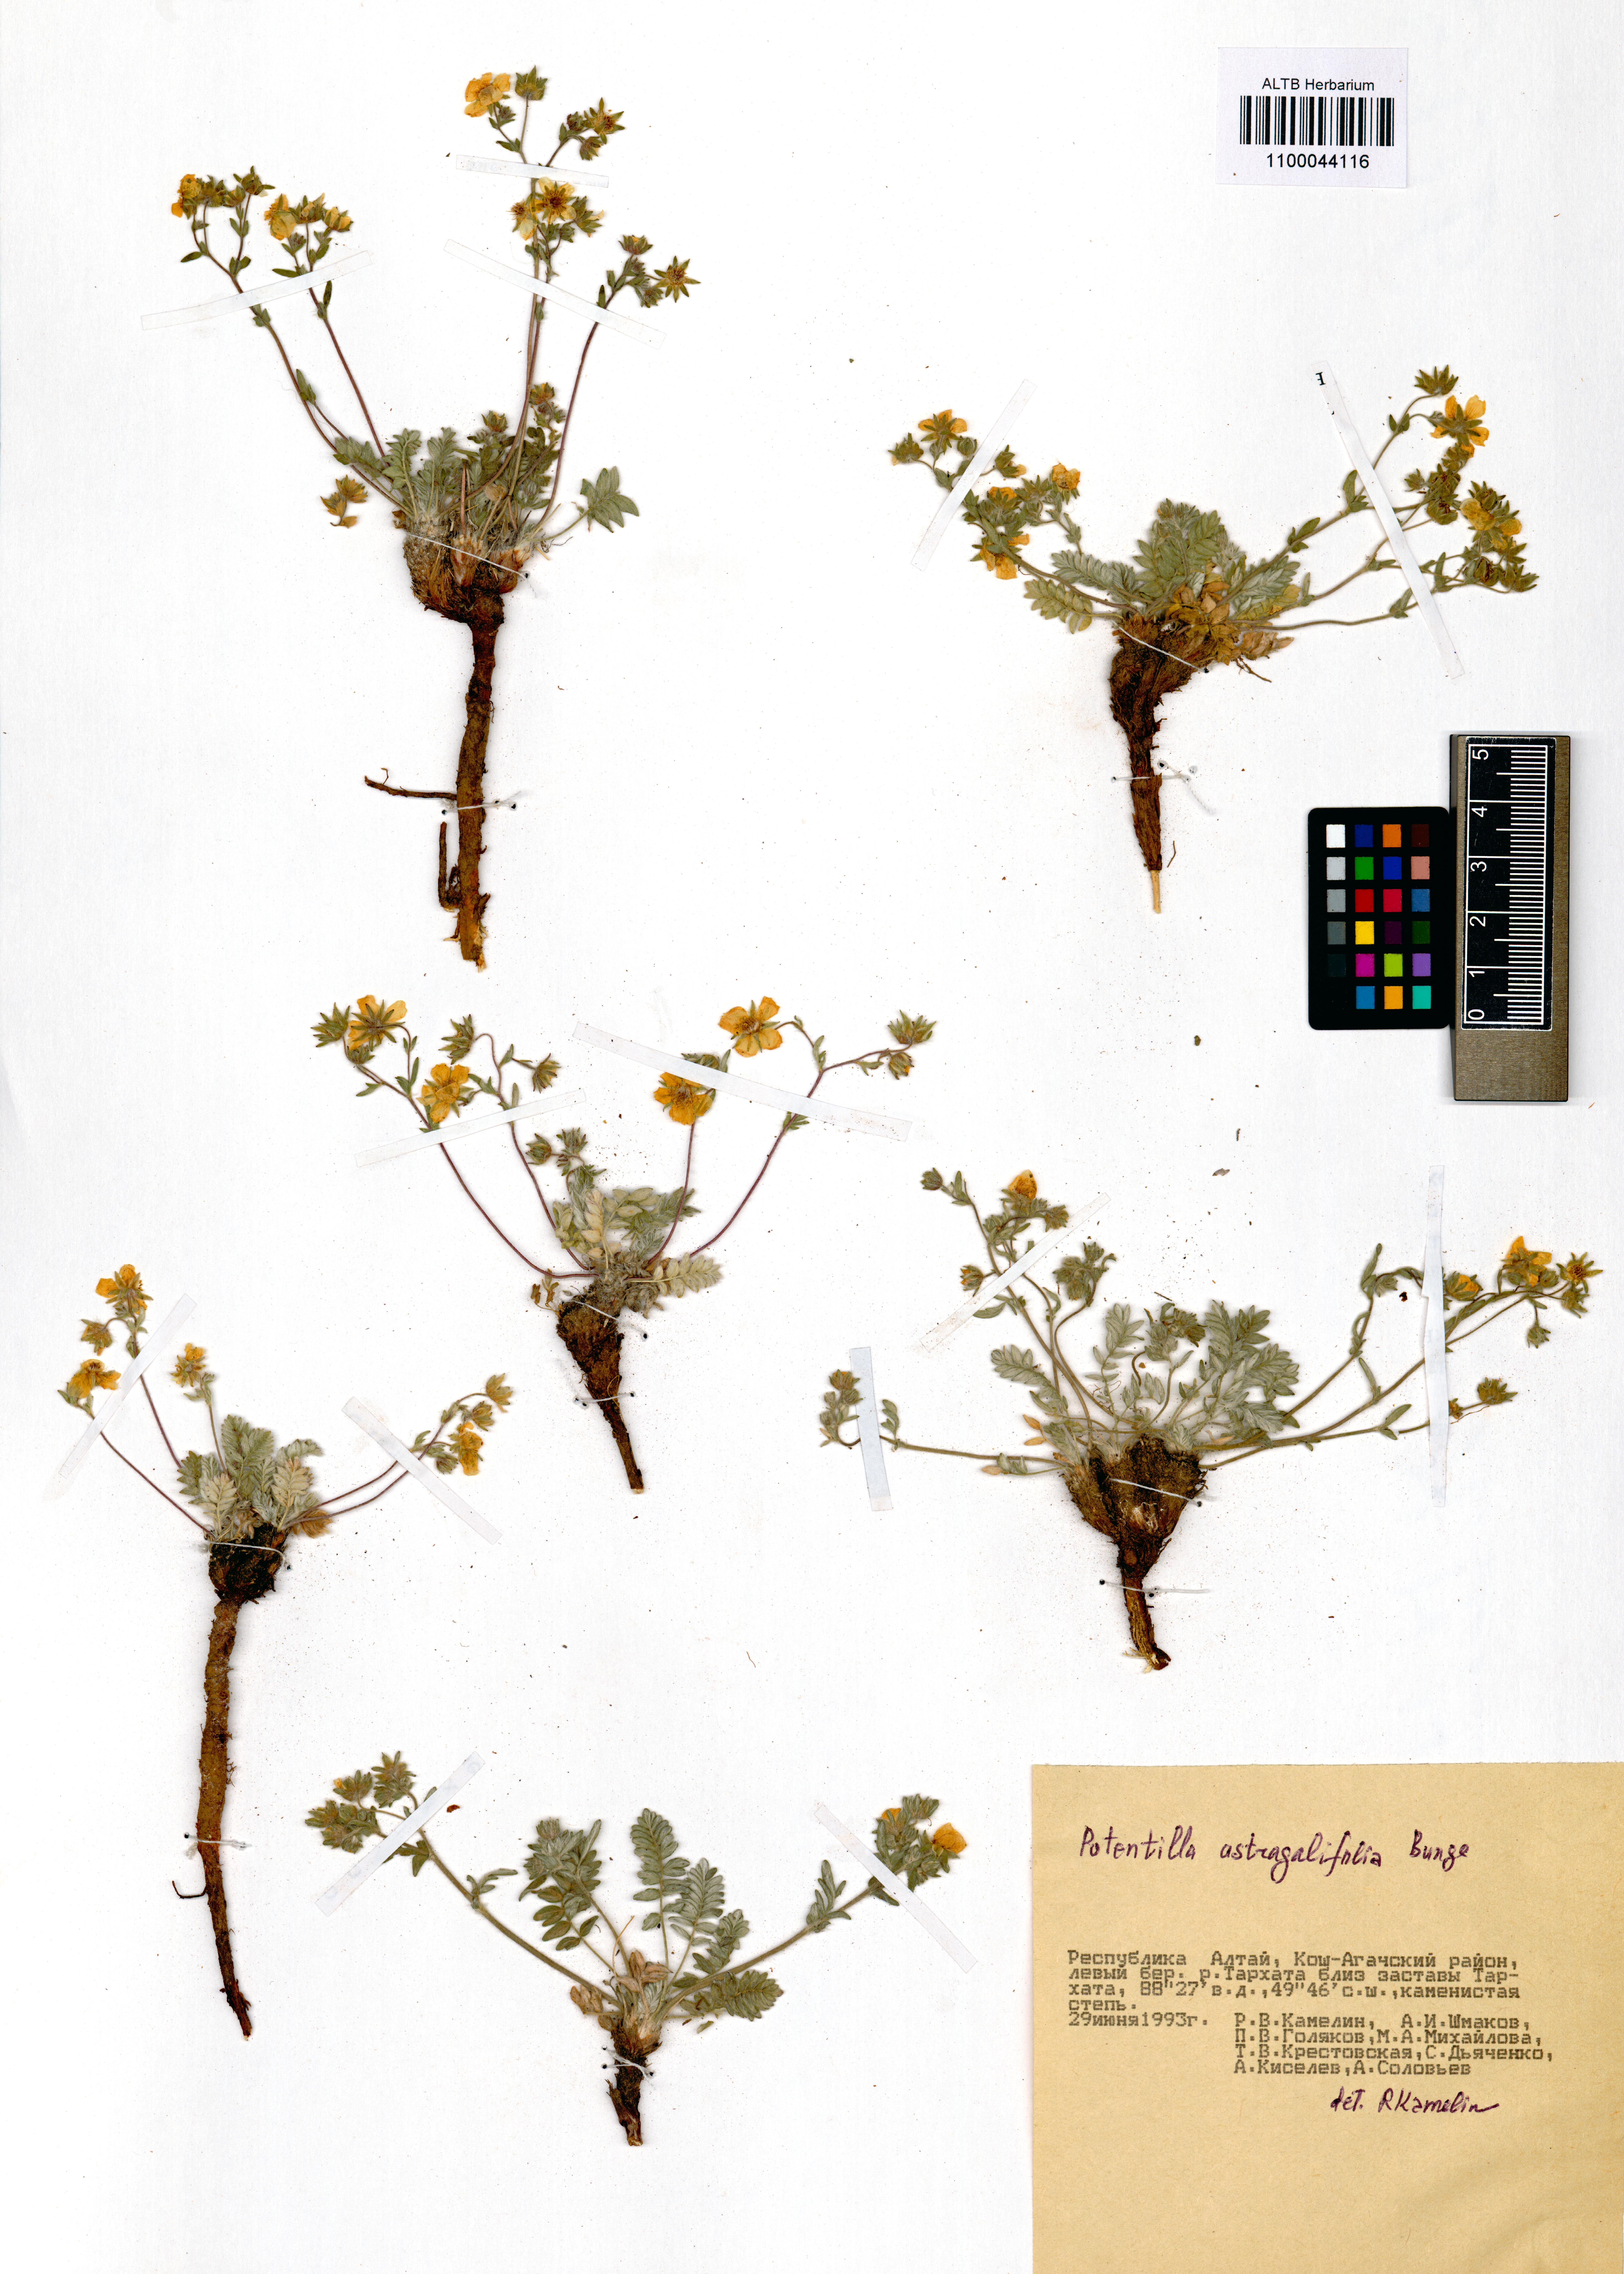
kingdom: Plantae
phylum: Tracheophyta
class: Magnoliopsida
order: Rosales
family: Rosaceae
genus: Potentilla
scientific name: Potentilla astragalifolia
